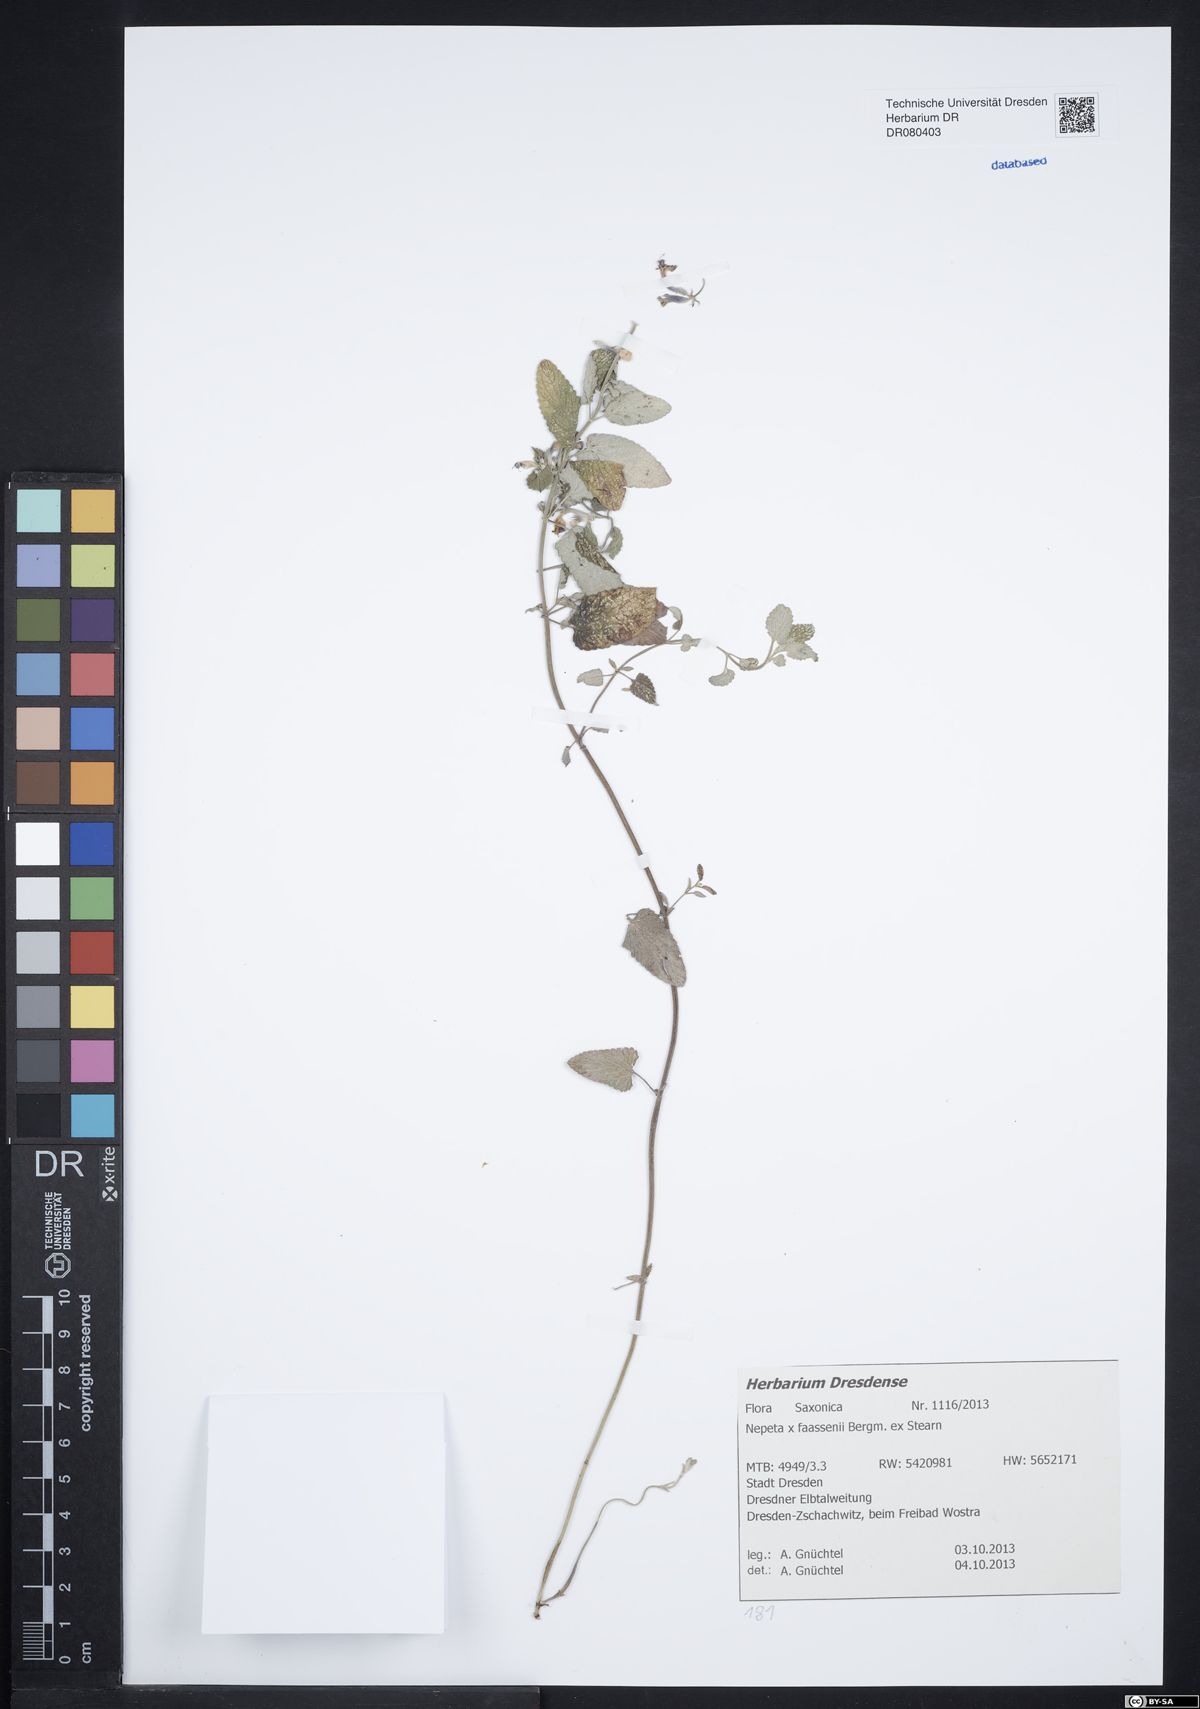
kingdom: Plantae
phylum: Tracheophyta
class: Magnoliopsida
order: Lamiales
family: Lamiaceae
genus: Nepeta
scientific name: Nepeta faassenii
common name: Catmint
